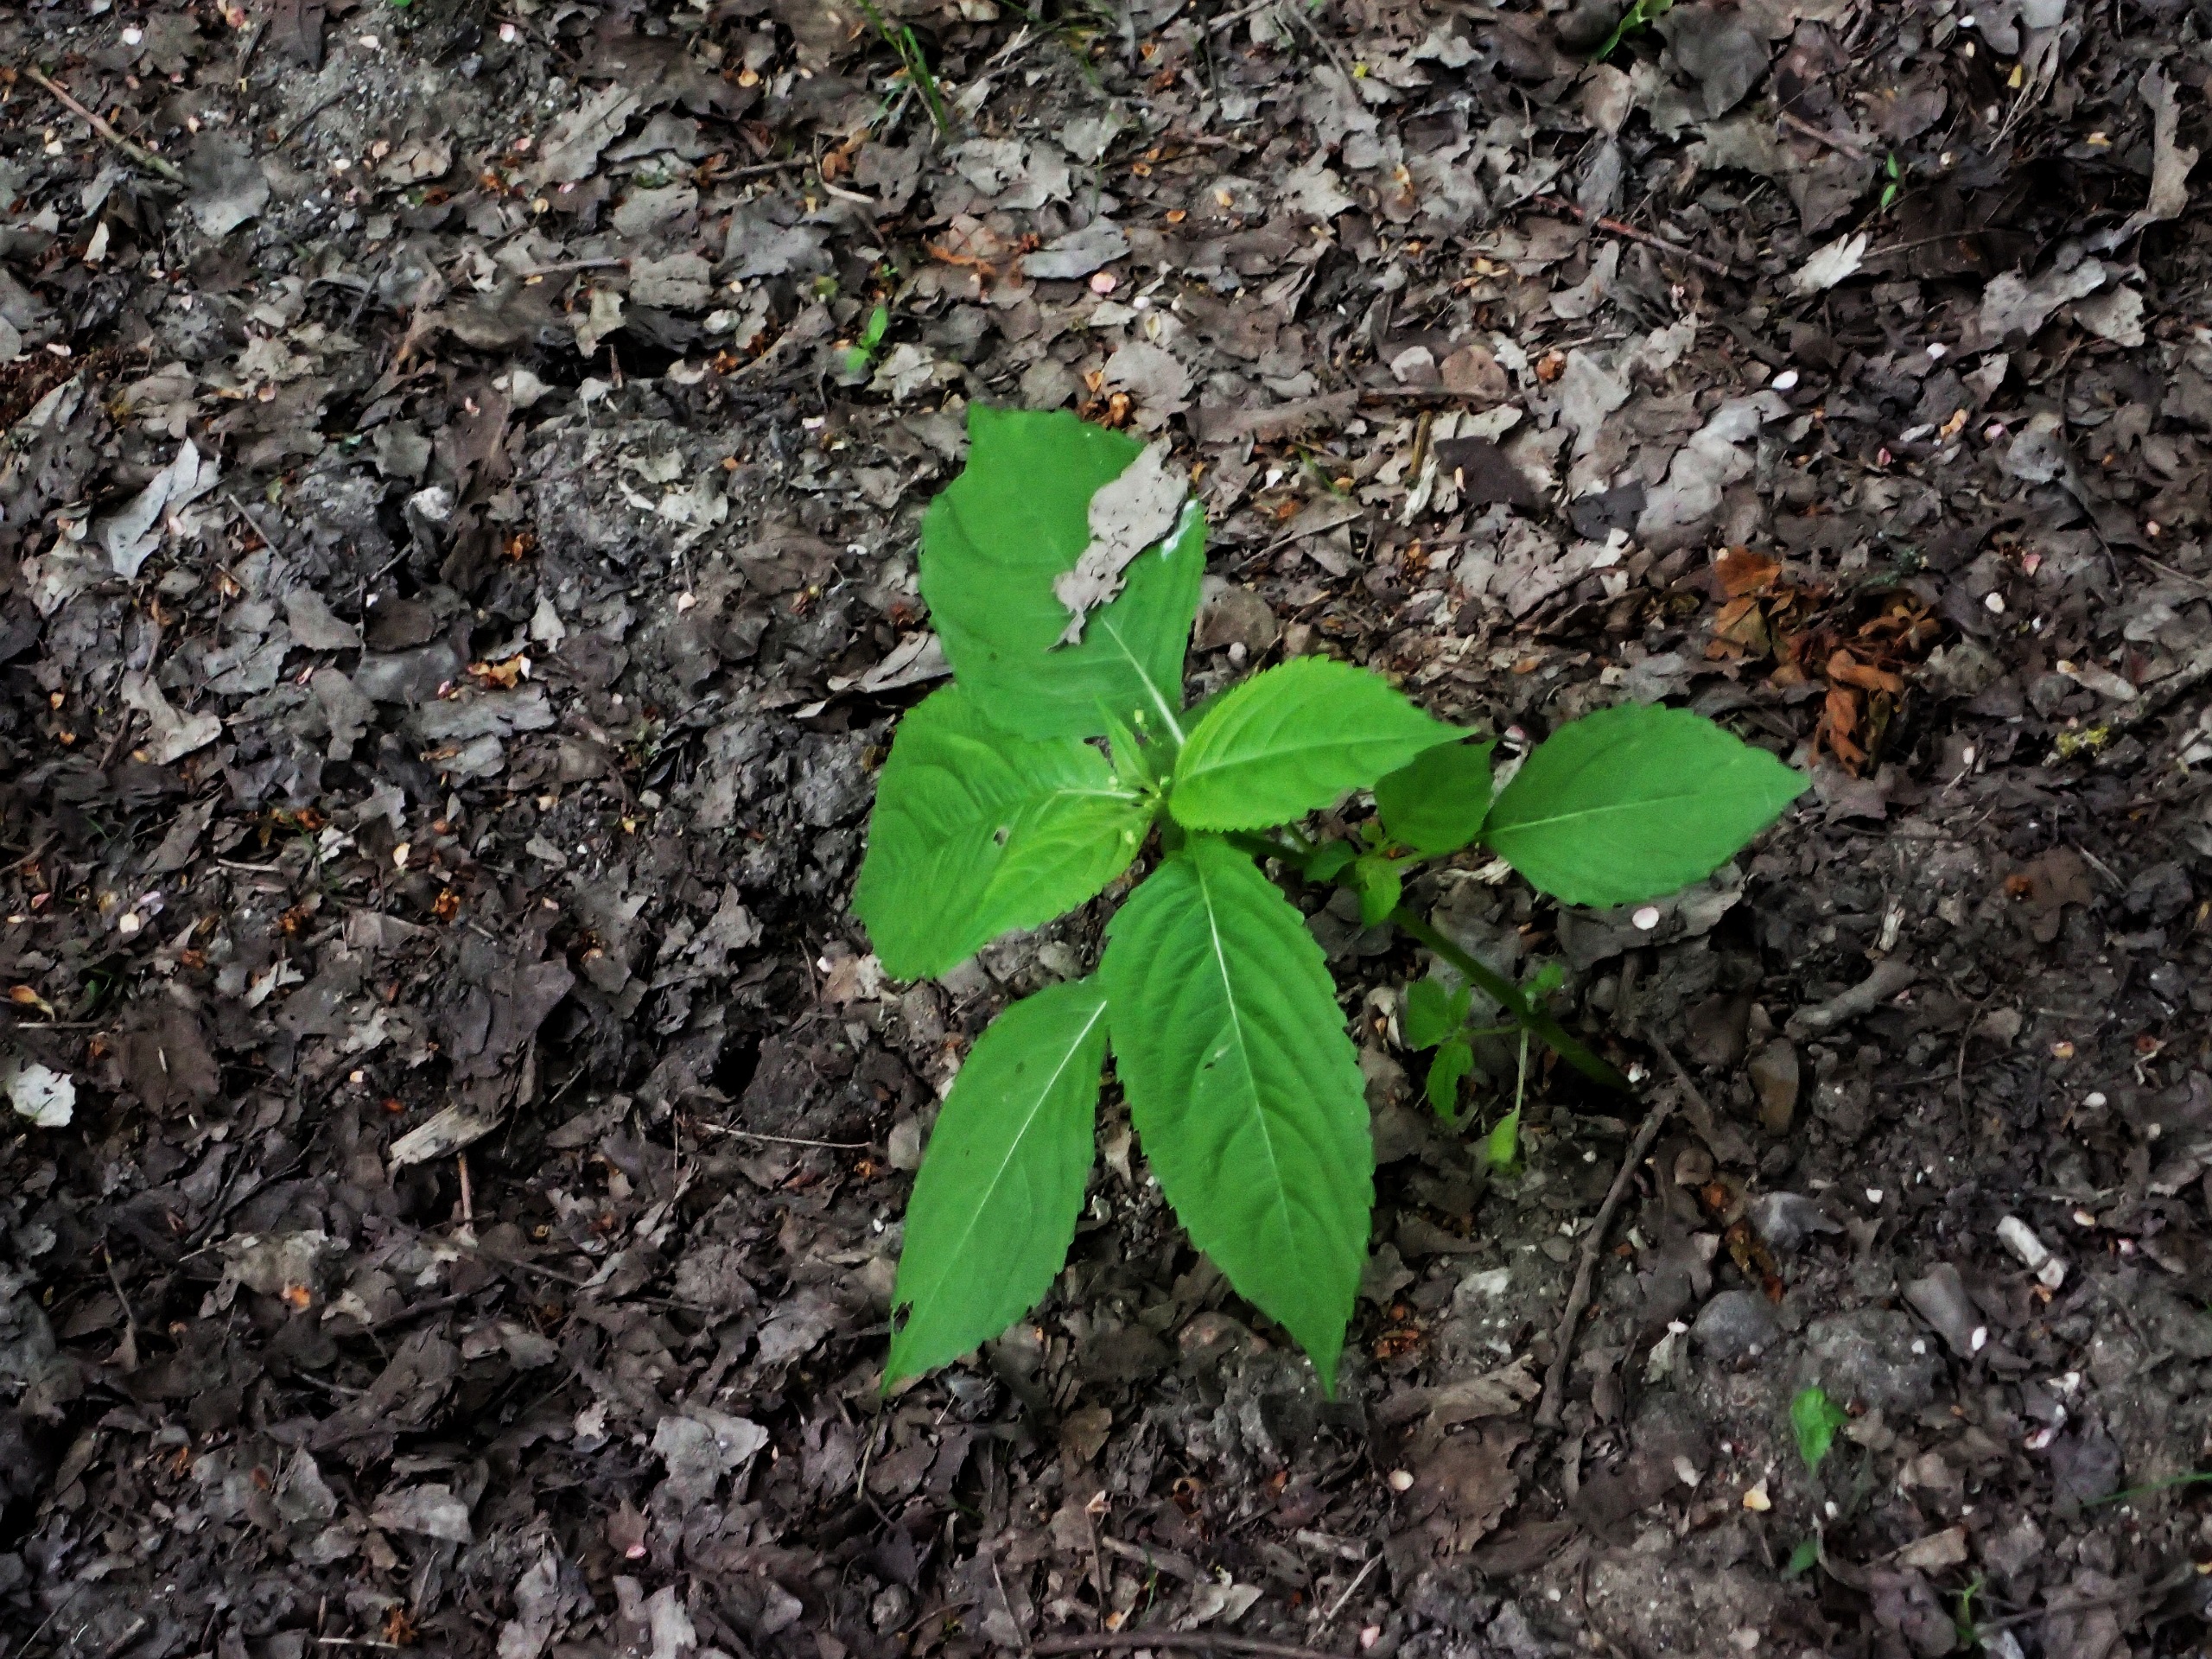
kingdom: Plantae
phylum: Tracheophyta
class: Magnoliopsida
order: Ericales
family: Balsaminaceae
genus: Impatiens
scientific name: Impatiens parviflora
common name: Småblomstret balsamin
